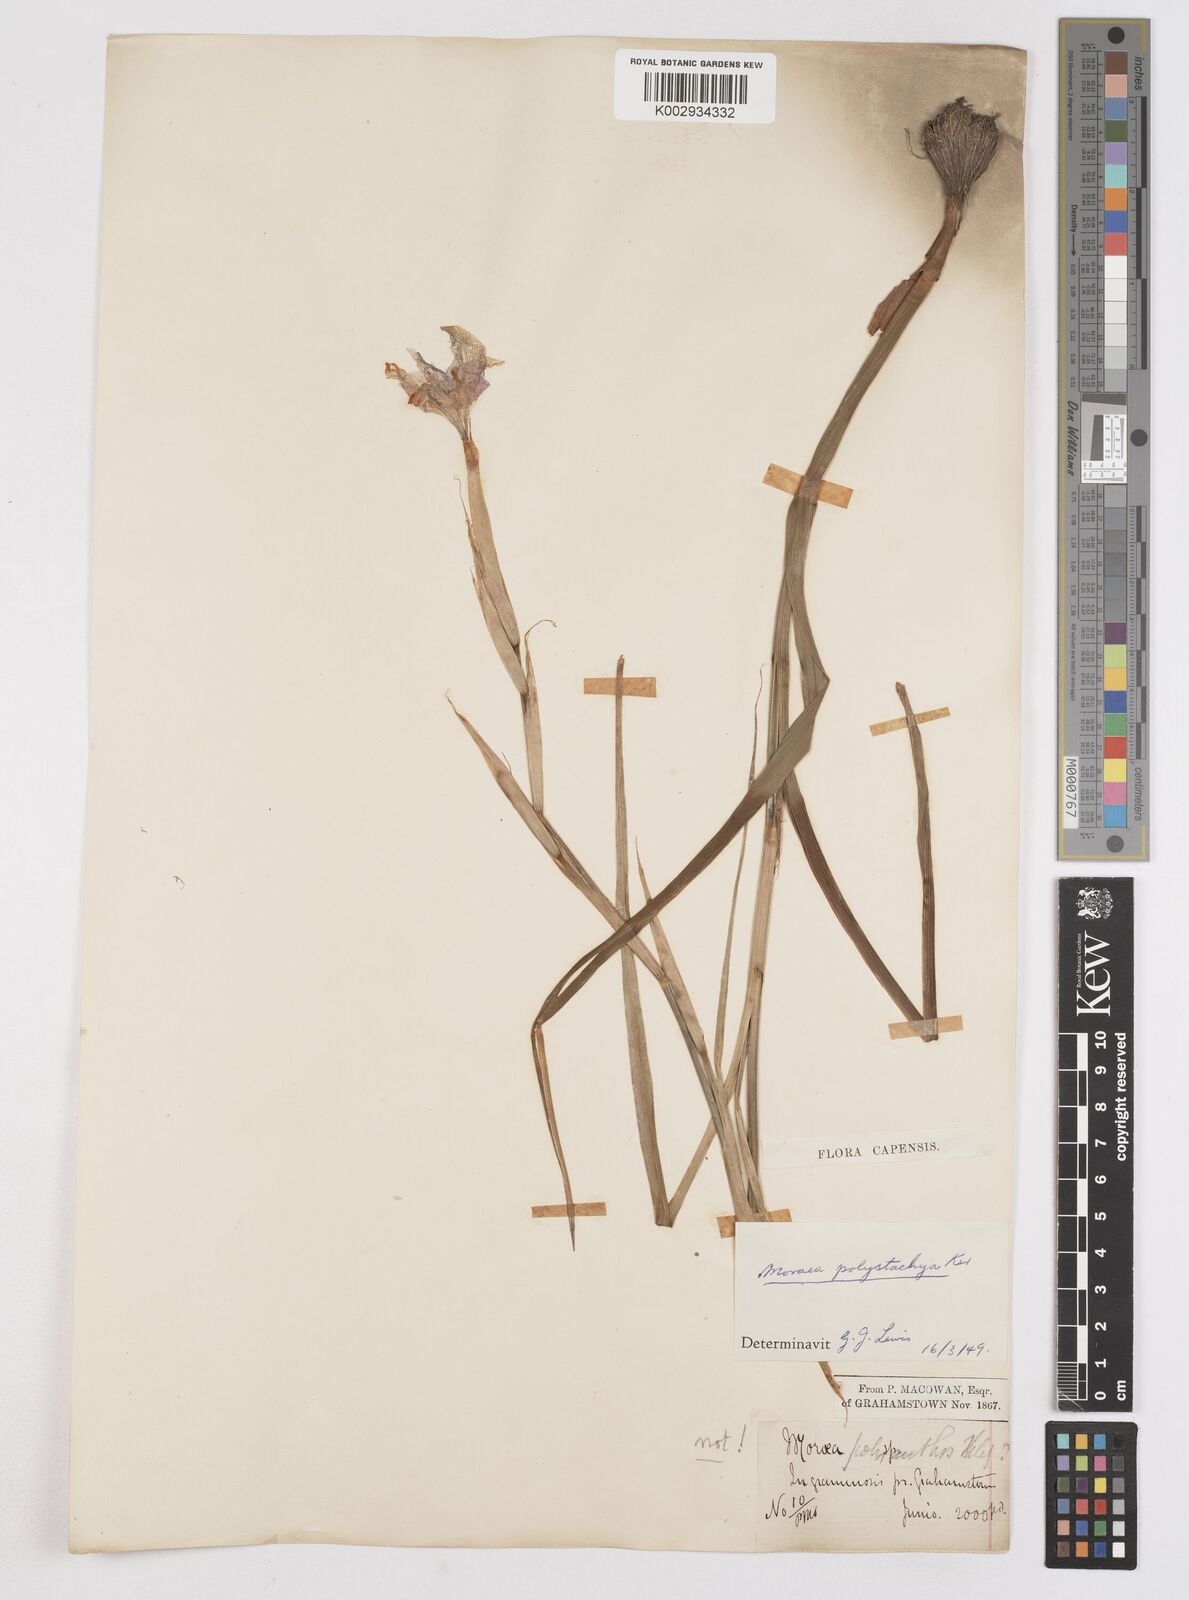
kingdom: Plantae
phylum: Tracheophyta
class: Liliopsida
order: Asparagales
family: Iridaceae
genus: Moraea
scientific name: Moraea polystachya
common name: Blue-tulip
